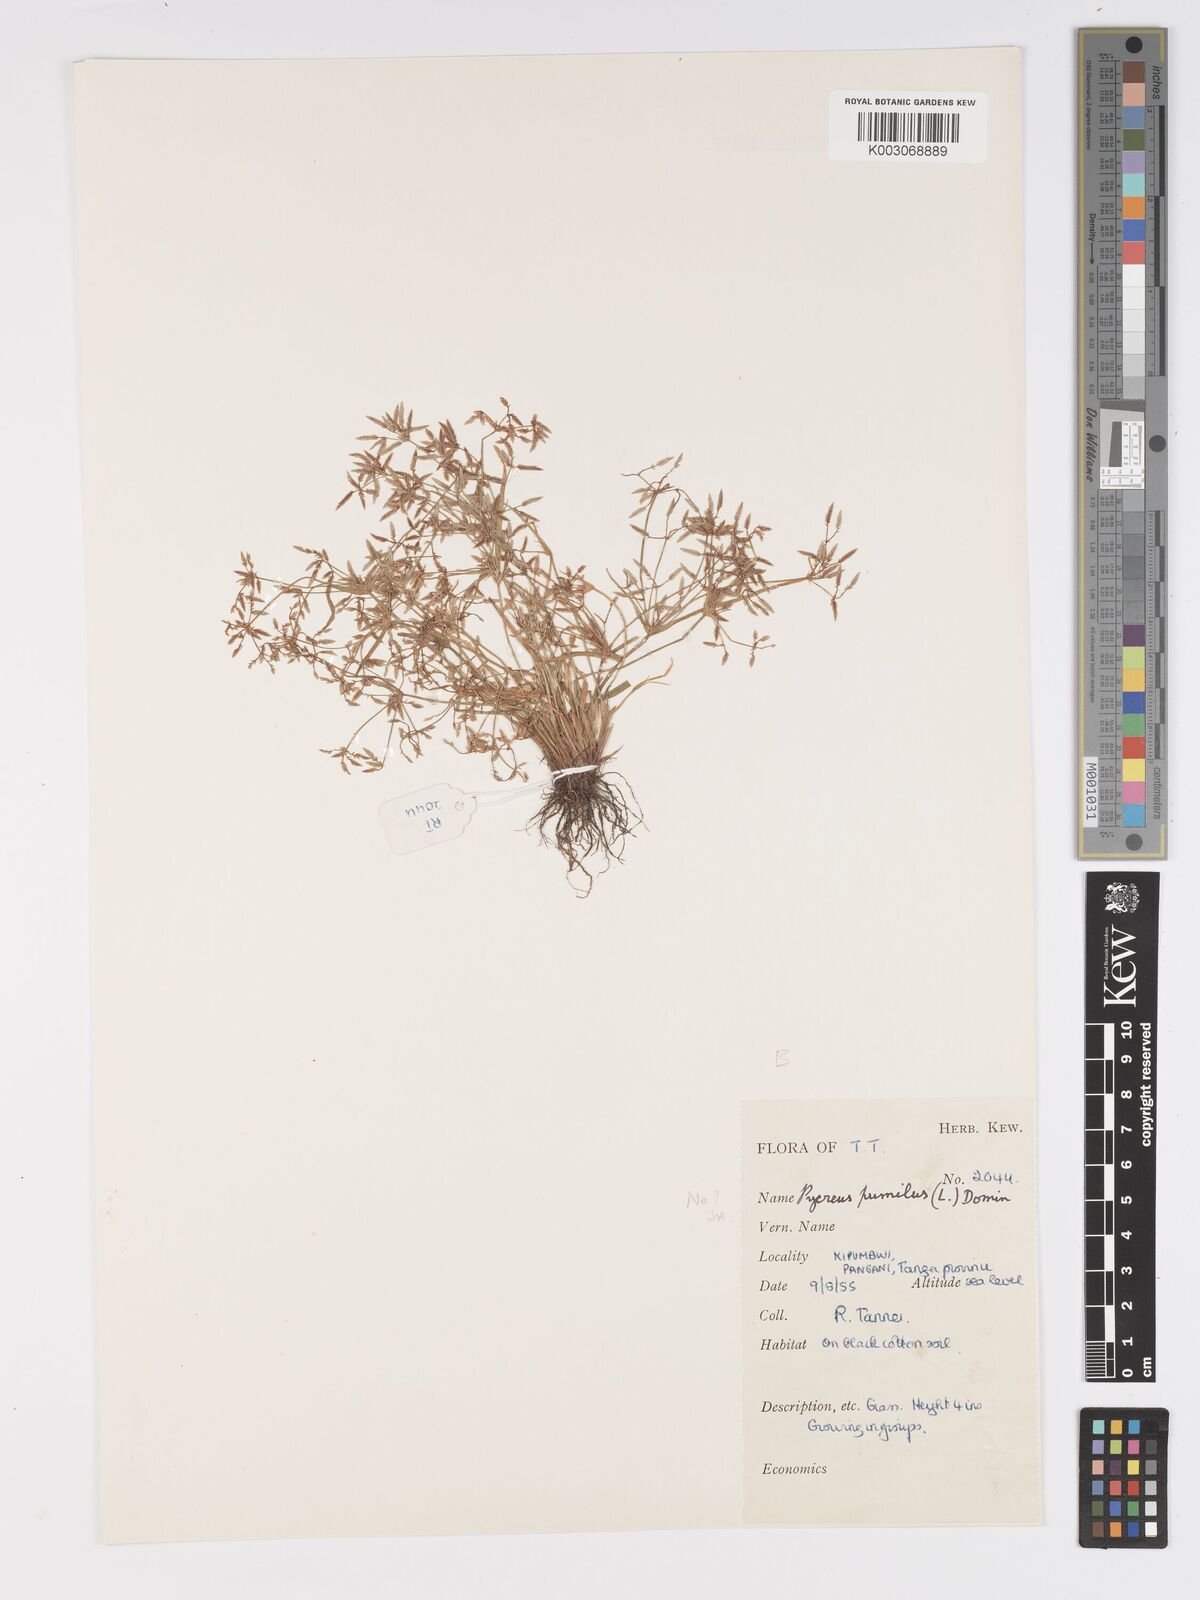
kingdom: Plantae
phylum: Tracheophyta
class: Liliopsida
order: Poales
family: Cyperaceae
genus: Cyperus
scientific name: Cyperus tenuispica
